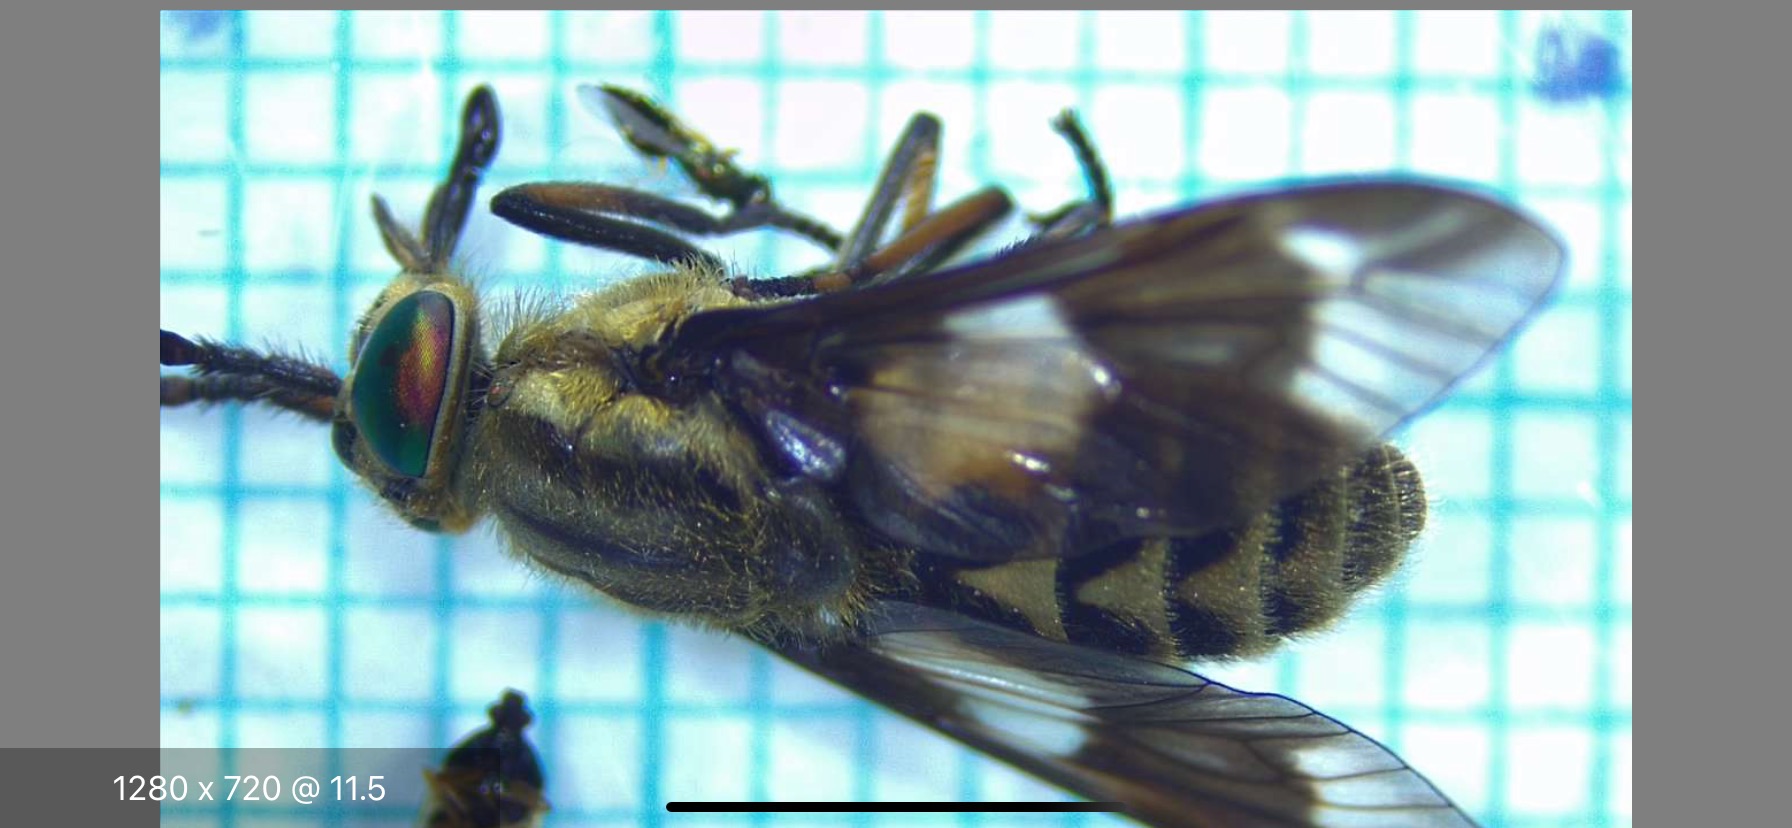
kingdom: Animalia
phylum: Arthropoda
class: Insecta
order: Diptera
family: Tabanidae
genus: Chrysops
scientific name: Chrysops relictus
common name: Guldklæg
